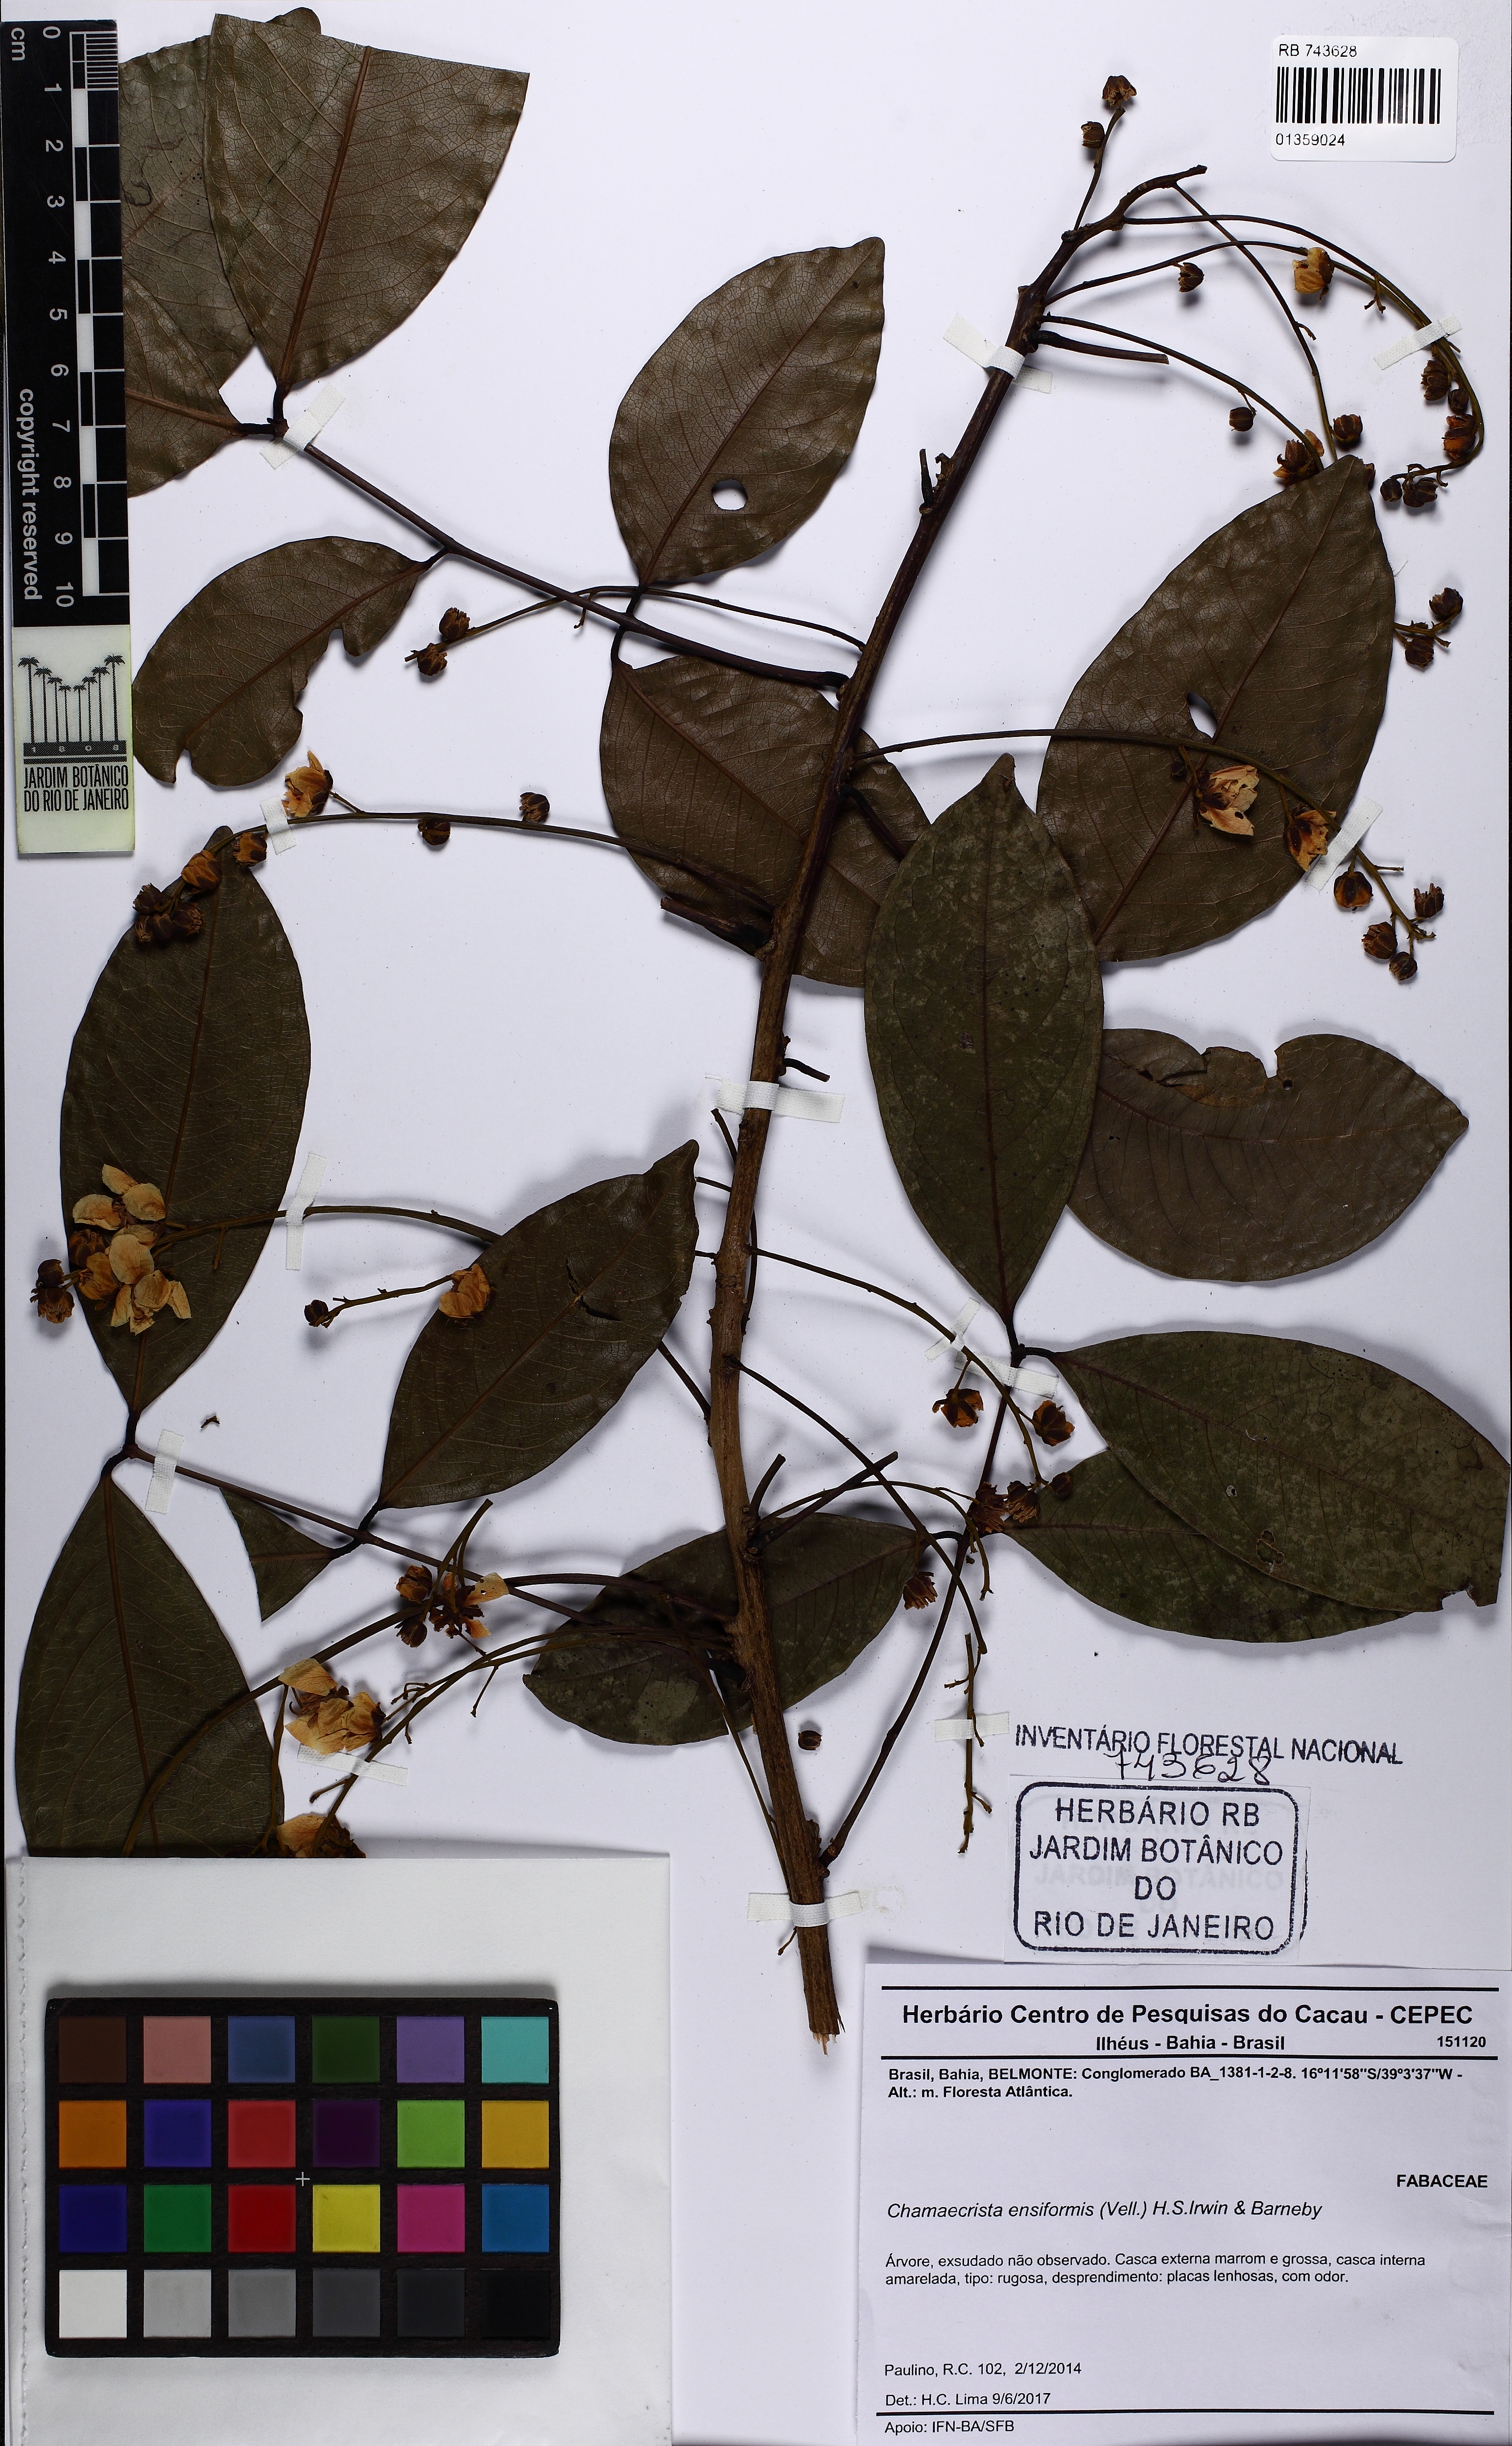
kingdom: Plantae
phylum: Tracheophyta
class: Magnoliopsida
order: Fabales
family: Fabaceae
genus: Chamaecrista
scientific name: Chamaecrista ensiformis
